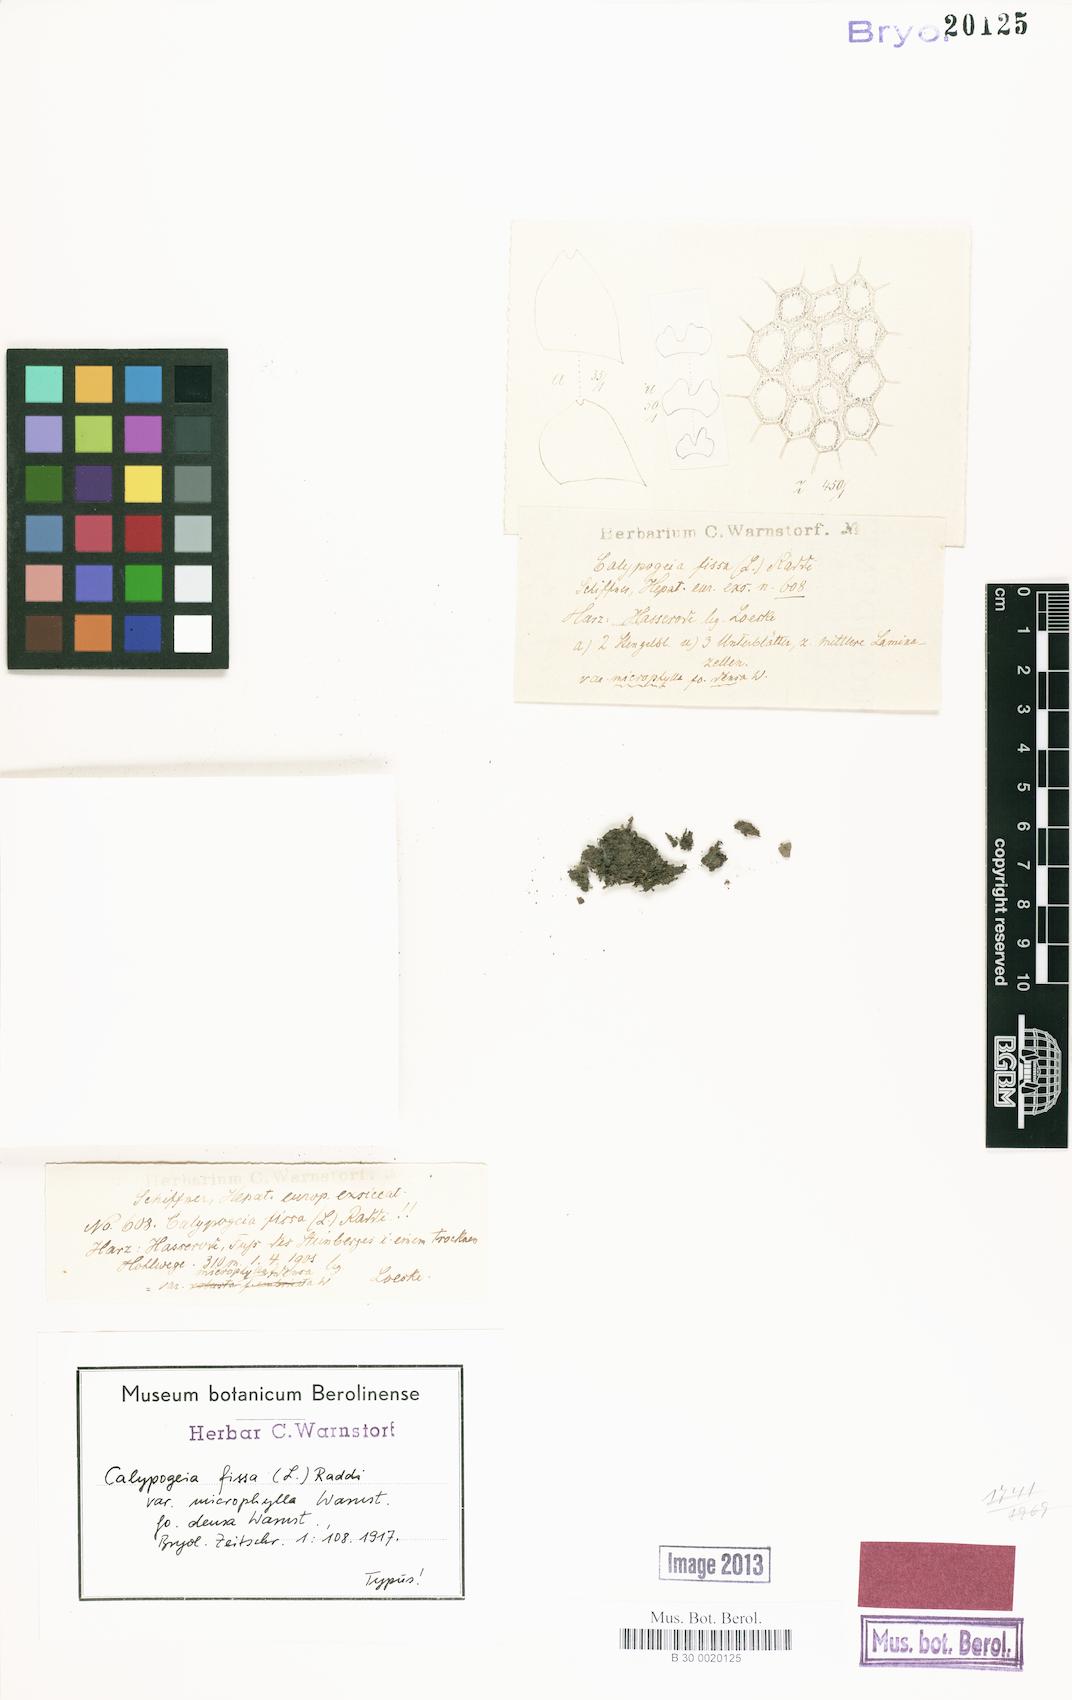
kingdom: Plantae
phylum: Marchantiophyta
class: Jungermanniopsida
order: Jungermanniales
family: Calypogeiaceae
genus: Calypogeia
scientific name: Calypogeia fissa
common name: Common pouchwort
